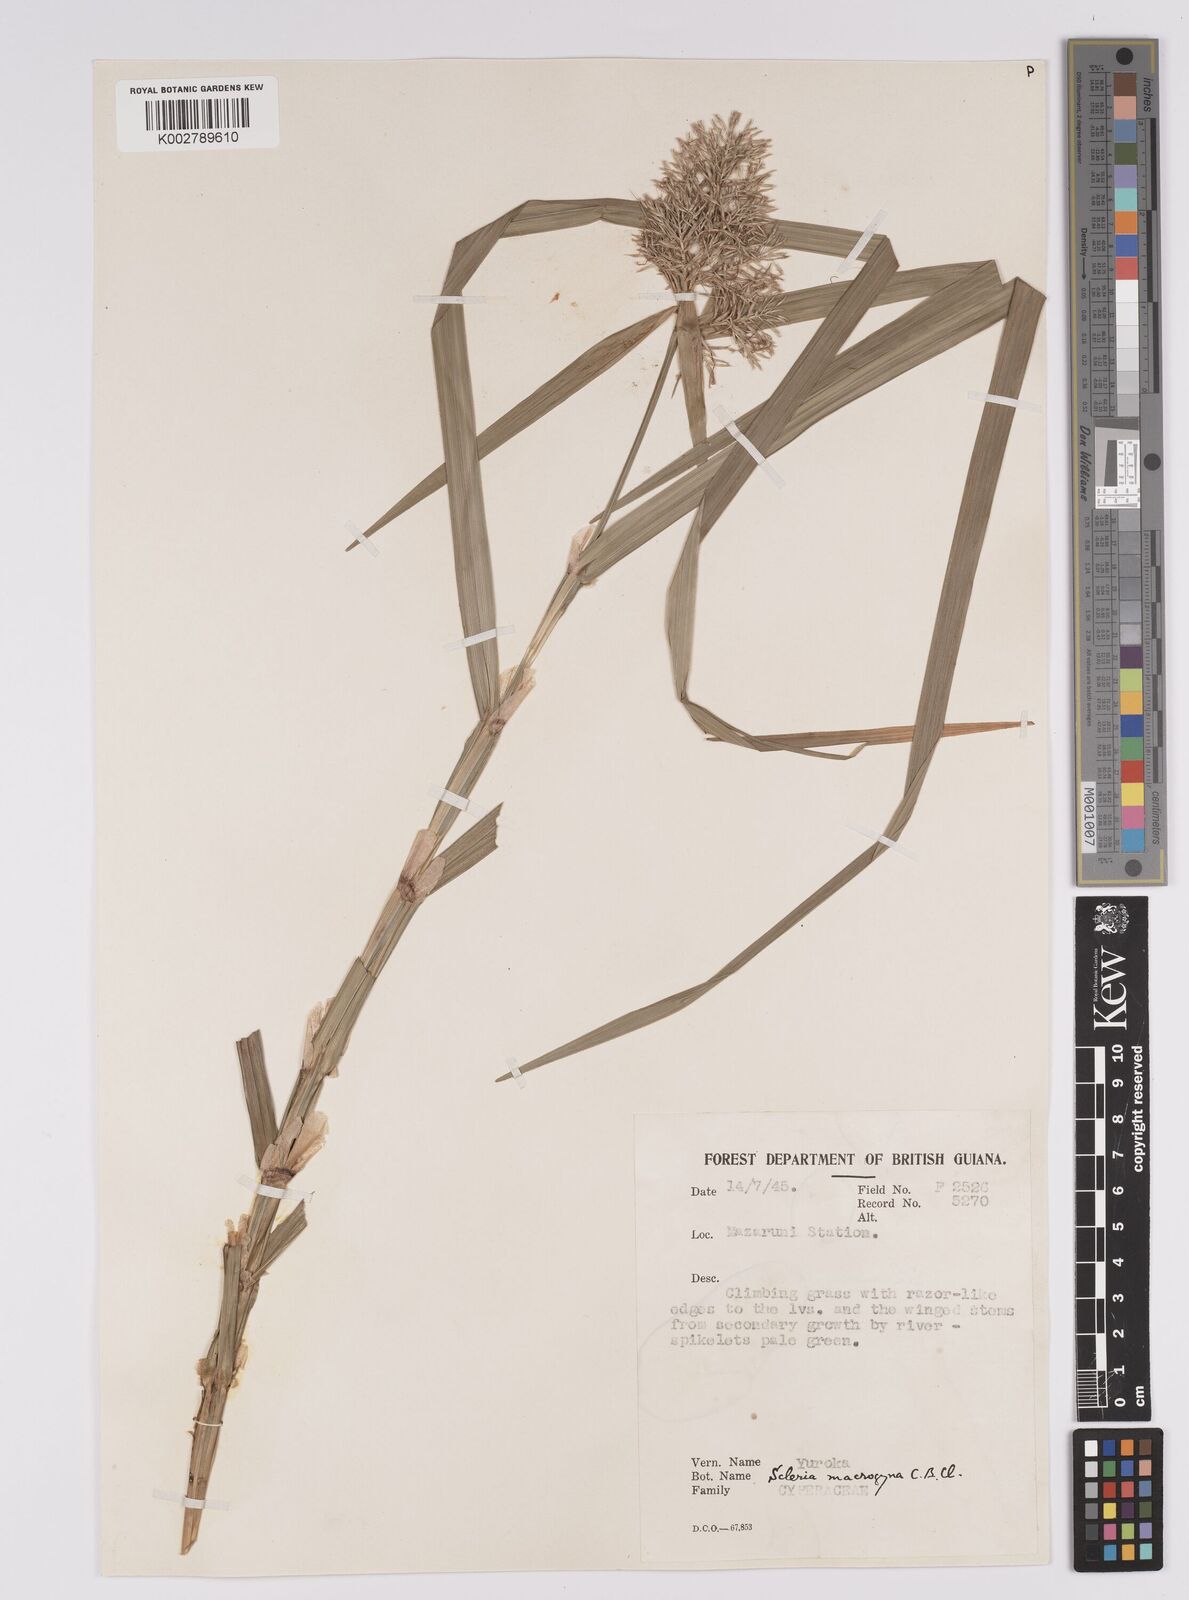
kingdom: Plantae
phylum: Tracheophyta
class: Liliopsida
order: Poales
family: Cyperaceae
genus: Scleria
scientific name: Scleria macrogyne
